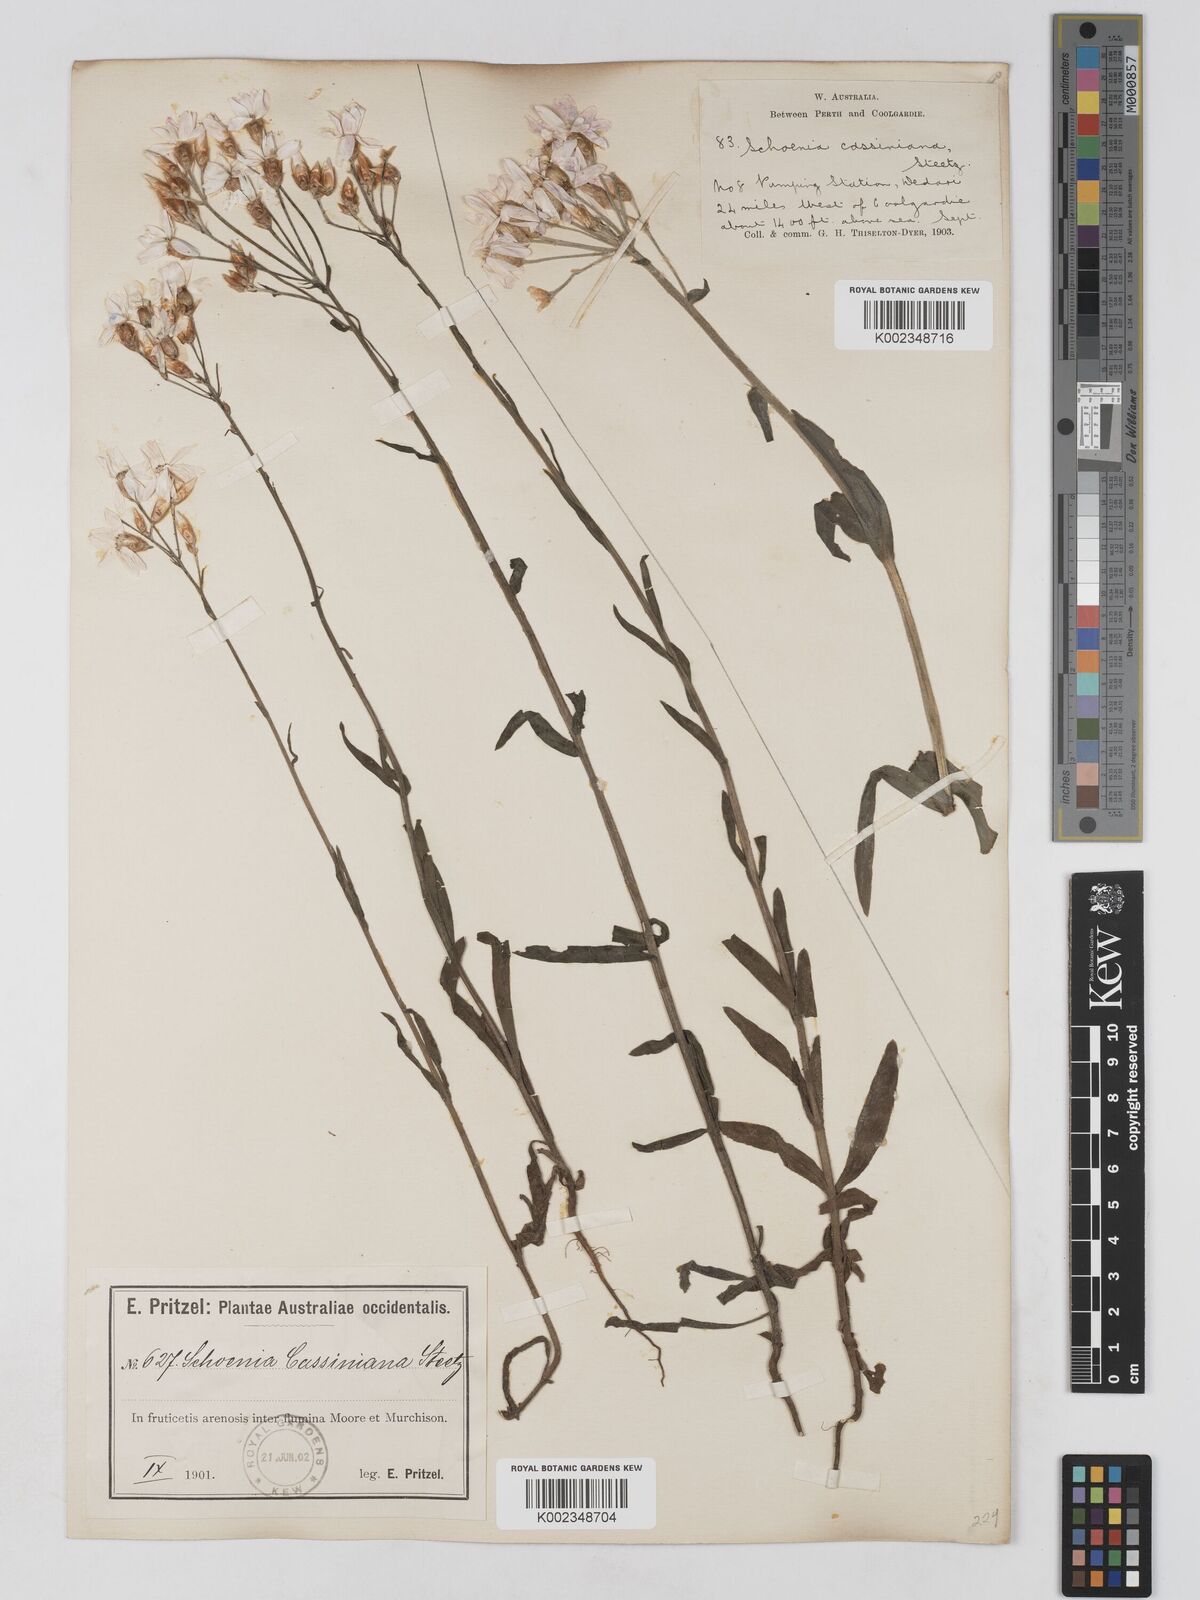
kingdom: Plantae
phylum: Tracheophyta
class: Magnoliopsida
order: Asterales
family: Asteraceae
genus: Schoenia
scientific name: Schoenia cassiniana
